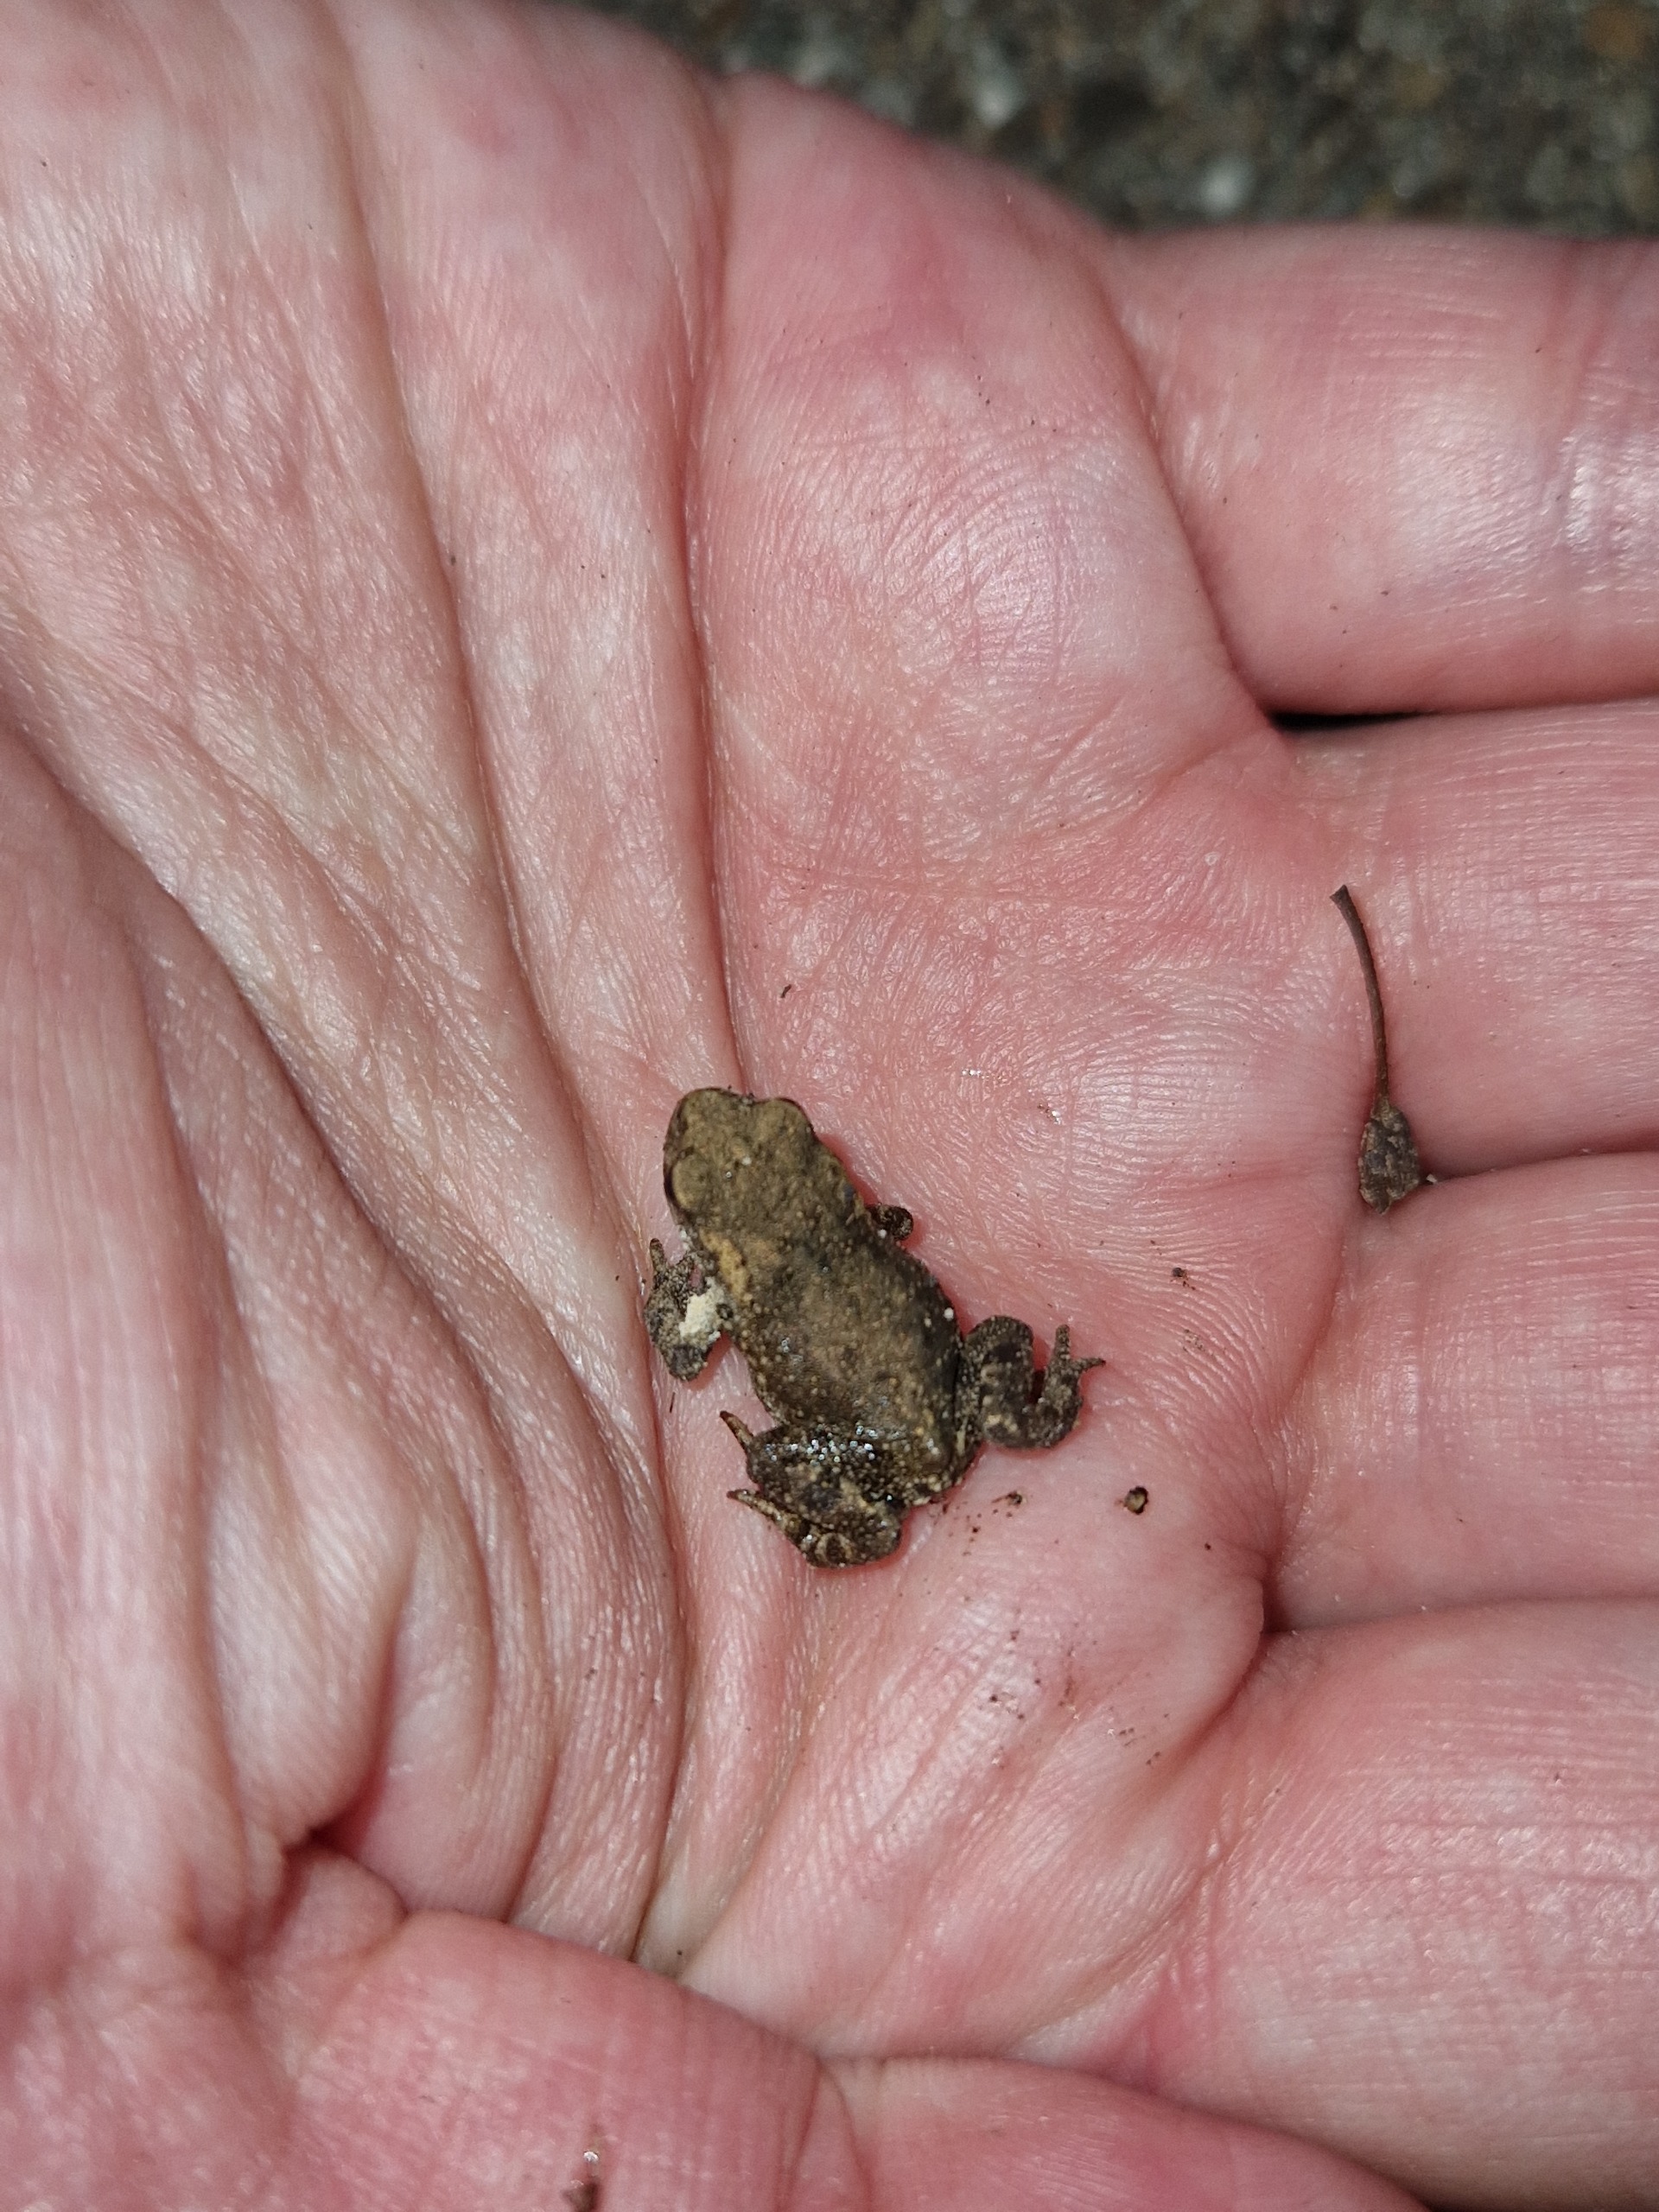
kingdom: Animalia
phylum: Chordata
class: Amphibia
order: Anura
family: Bufonidae
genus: Bufo
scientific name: Bufo bufo
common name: Skrubtudse
